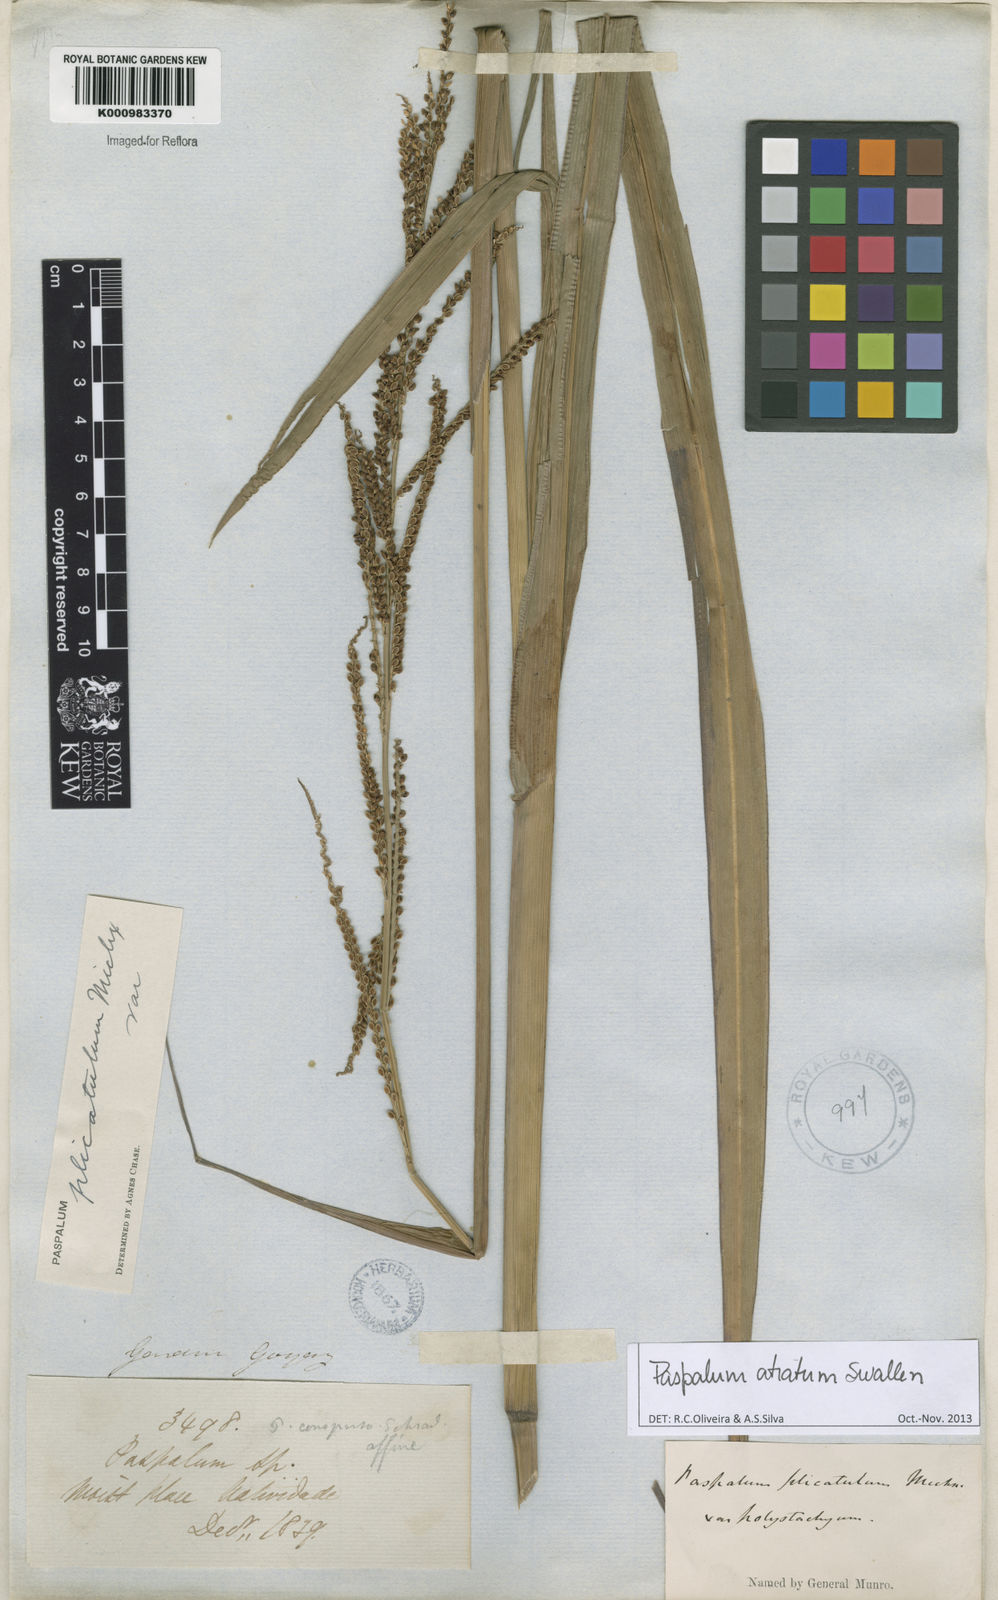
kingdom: Plantae
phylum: Tracheophyta
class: Liliopsida
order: Poales
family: Poaceae
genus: Paspalum
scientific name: Paspalum atratum
